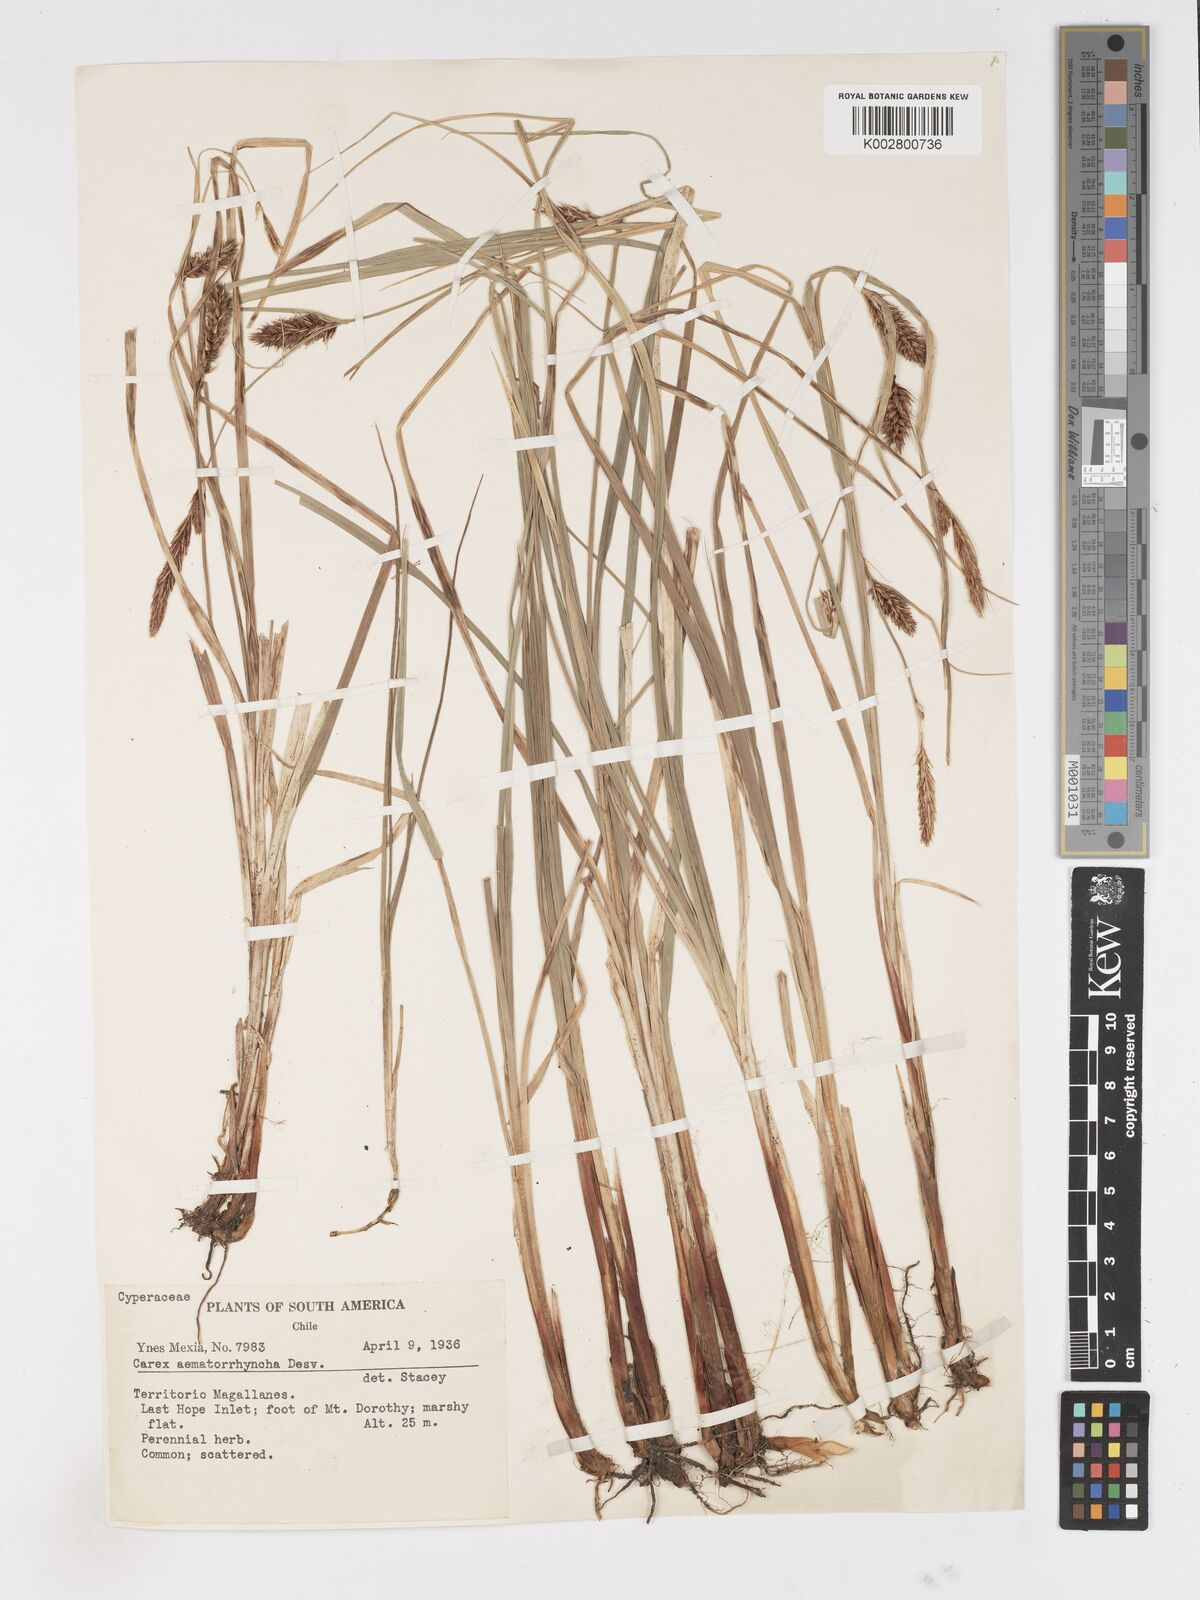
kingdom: Plantae
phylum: Tracheophyta
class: Liliopsida
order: Poales
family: Cyperaceae
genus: Carex
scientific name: Carex aematorhyncha
